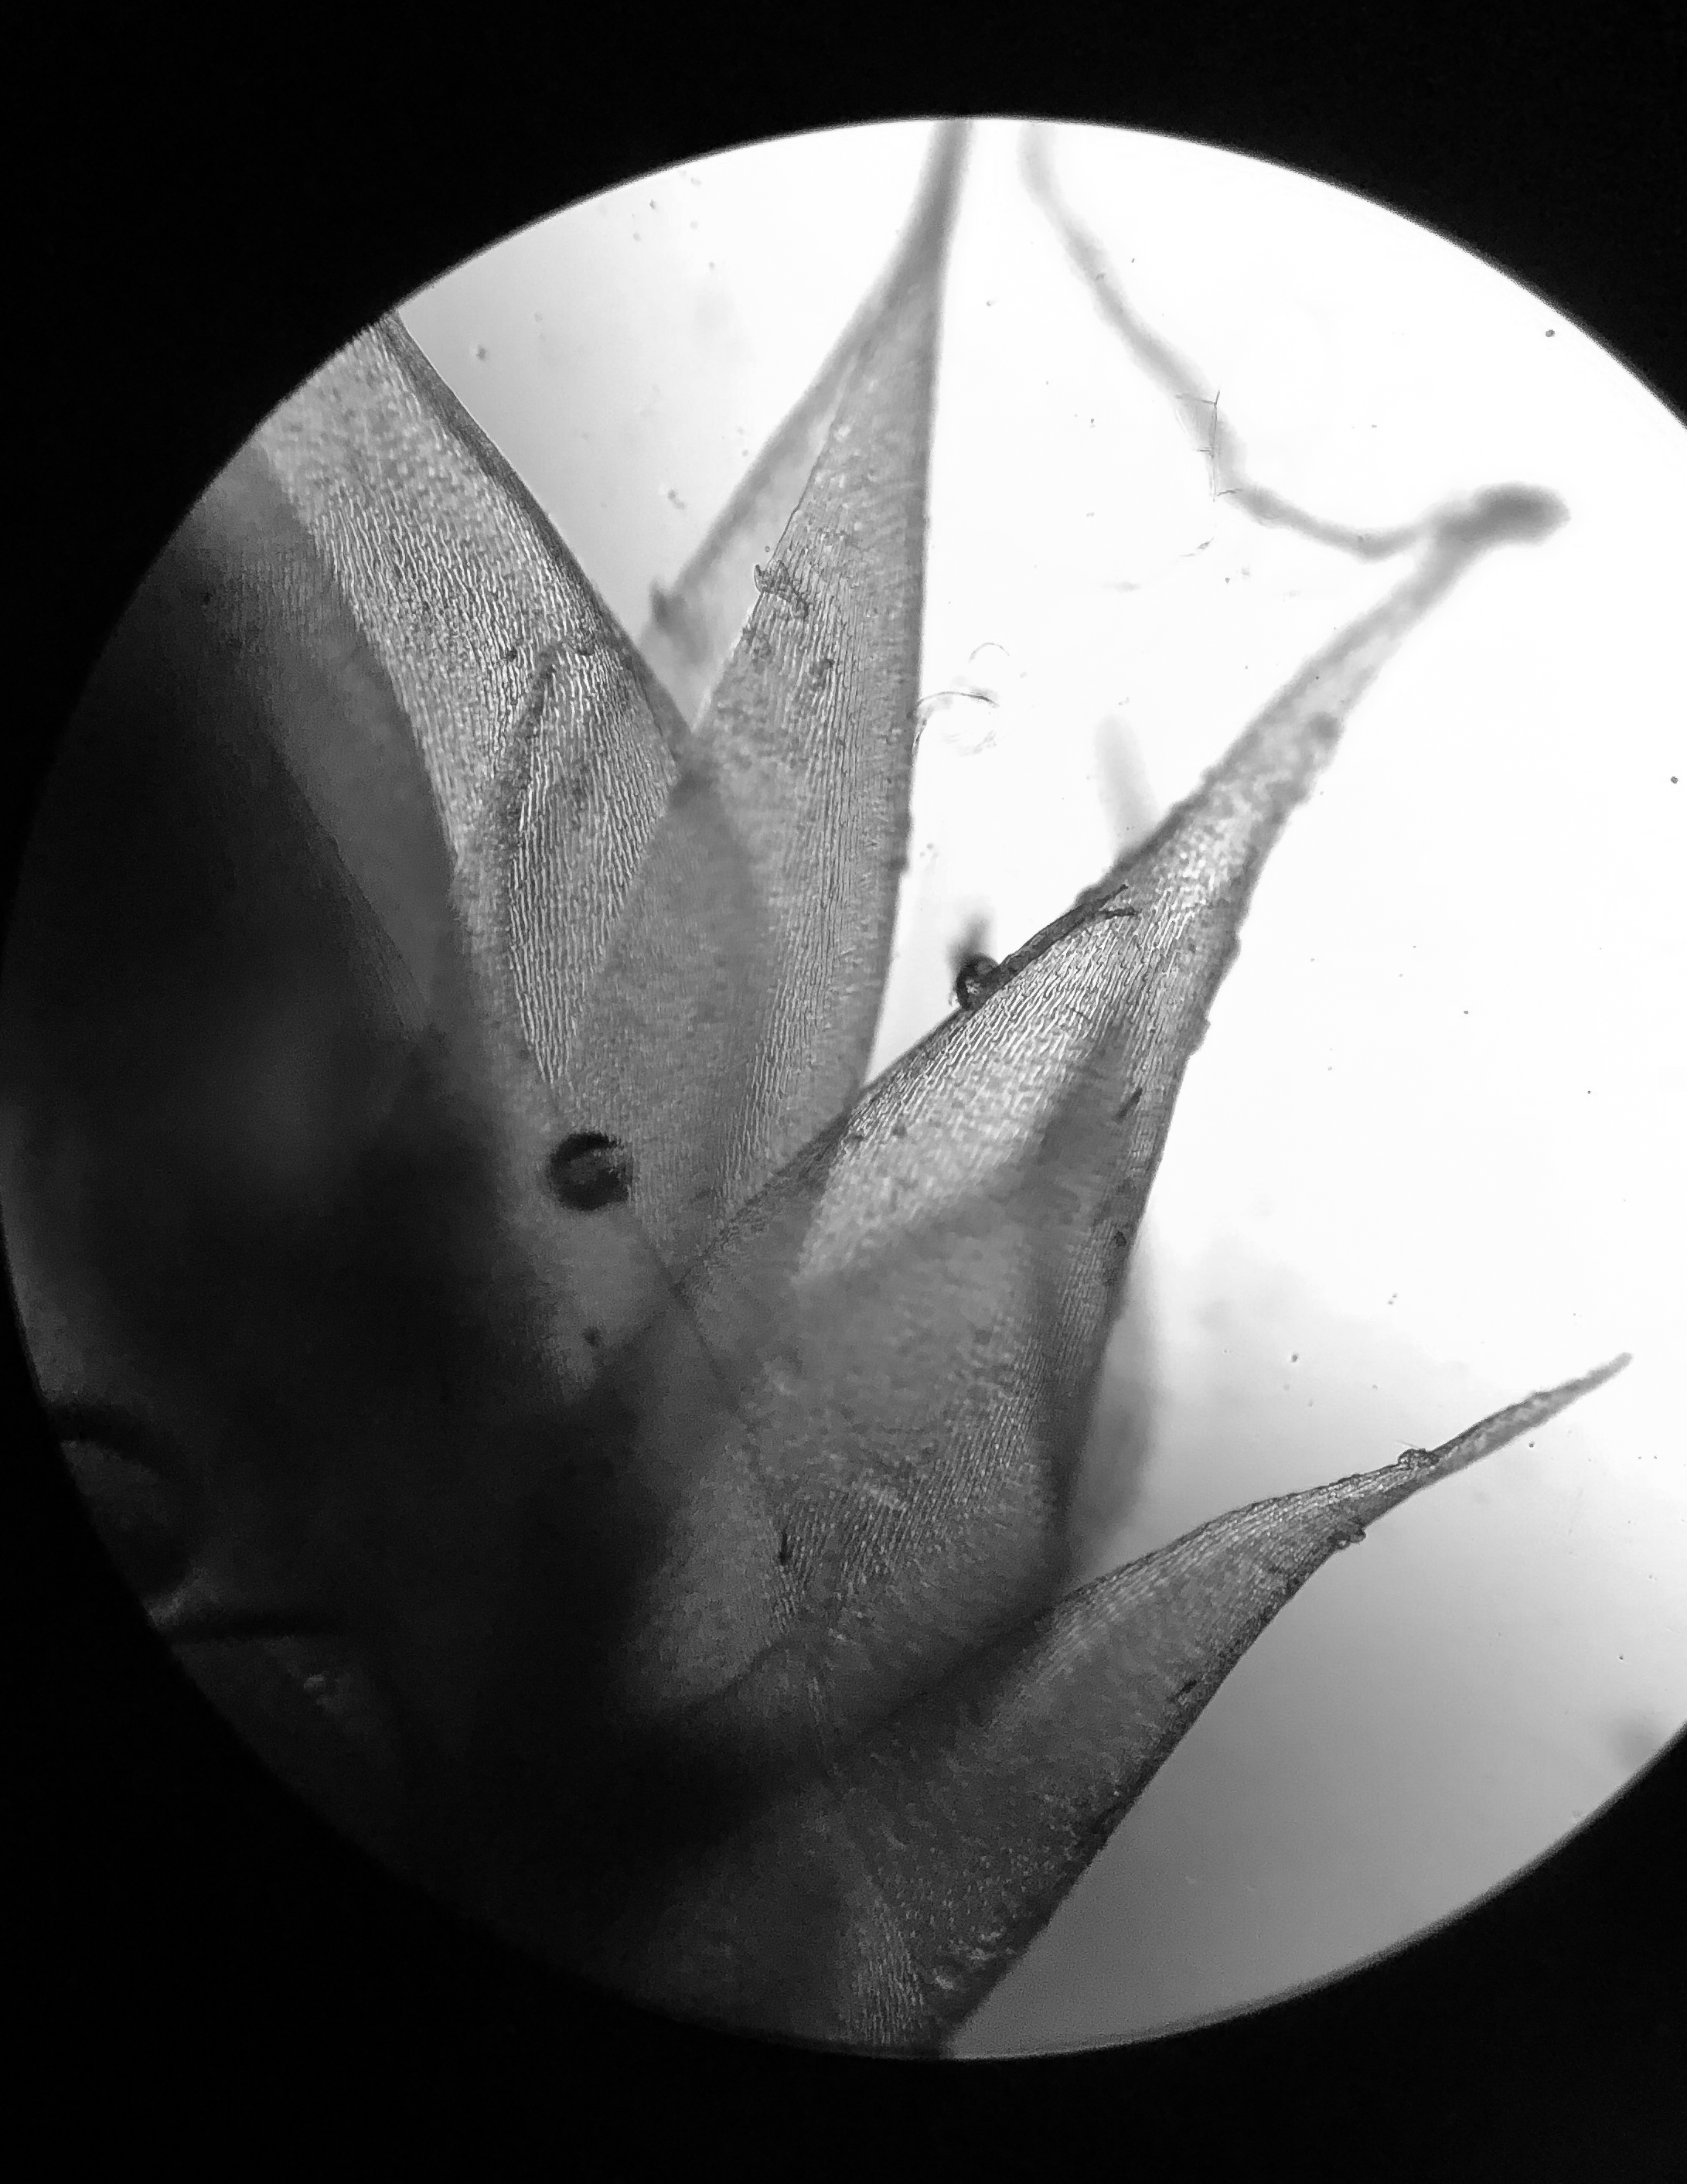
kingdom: Plantae
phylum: Bryophyta
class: Bryopsida
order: Hypnales
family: Hypnaceae
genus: Hypnum
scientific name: Hypnum cupressiforme
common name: Almindelig cypresmos
